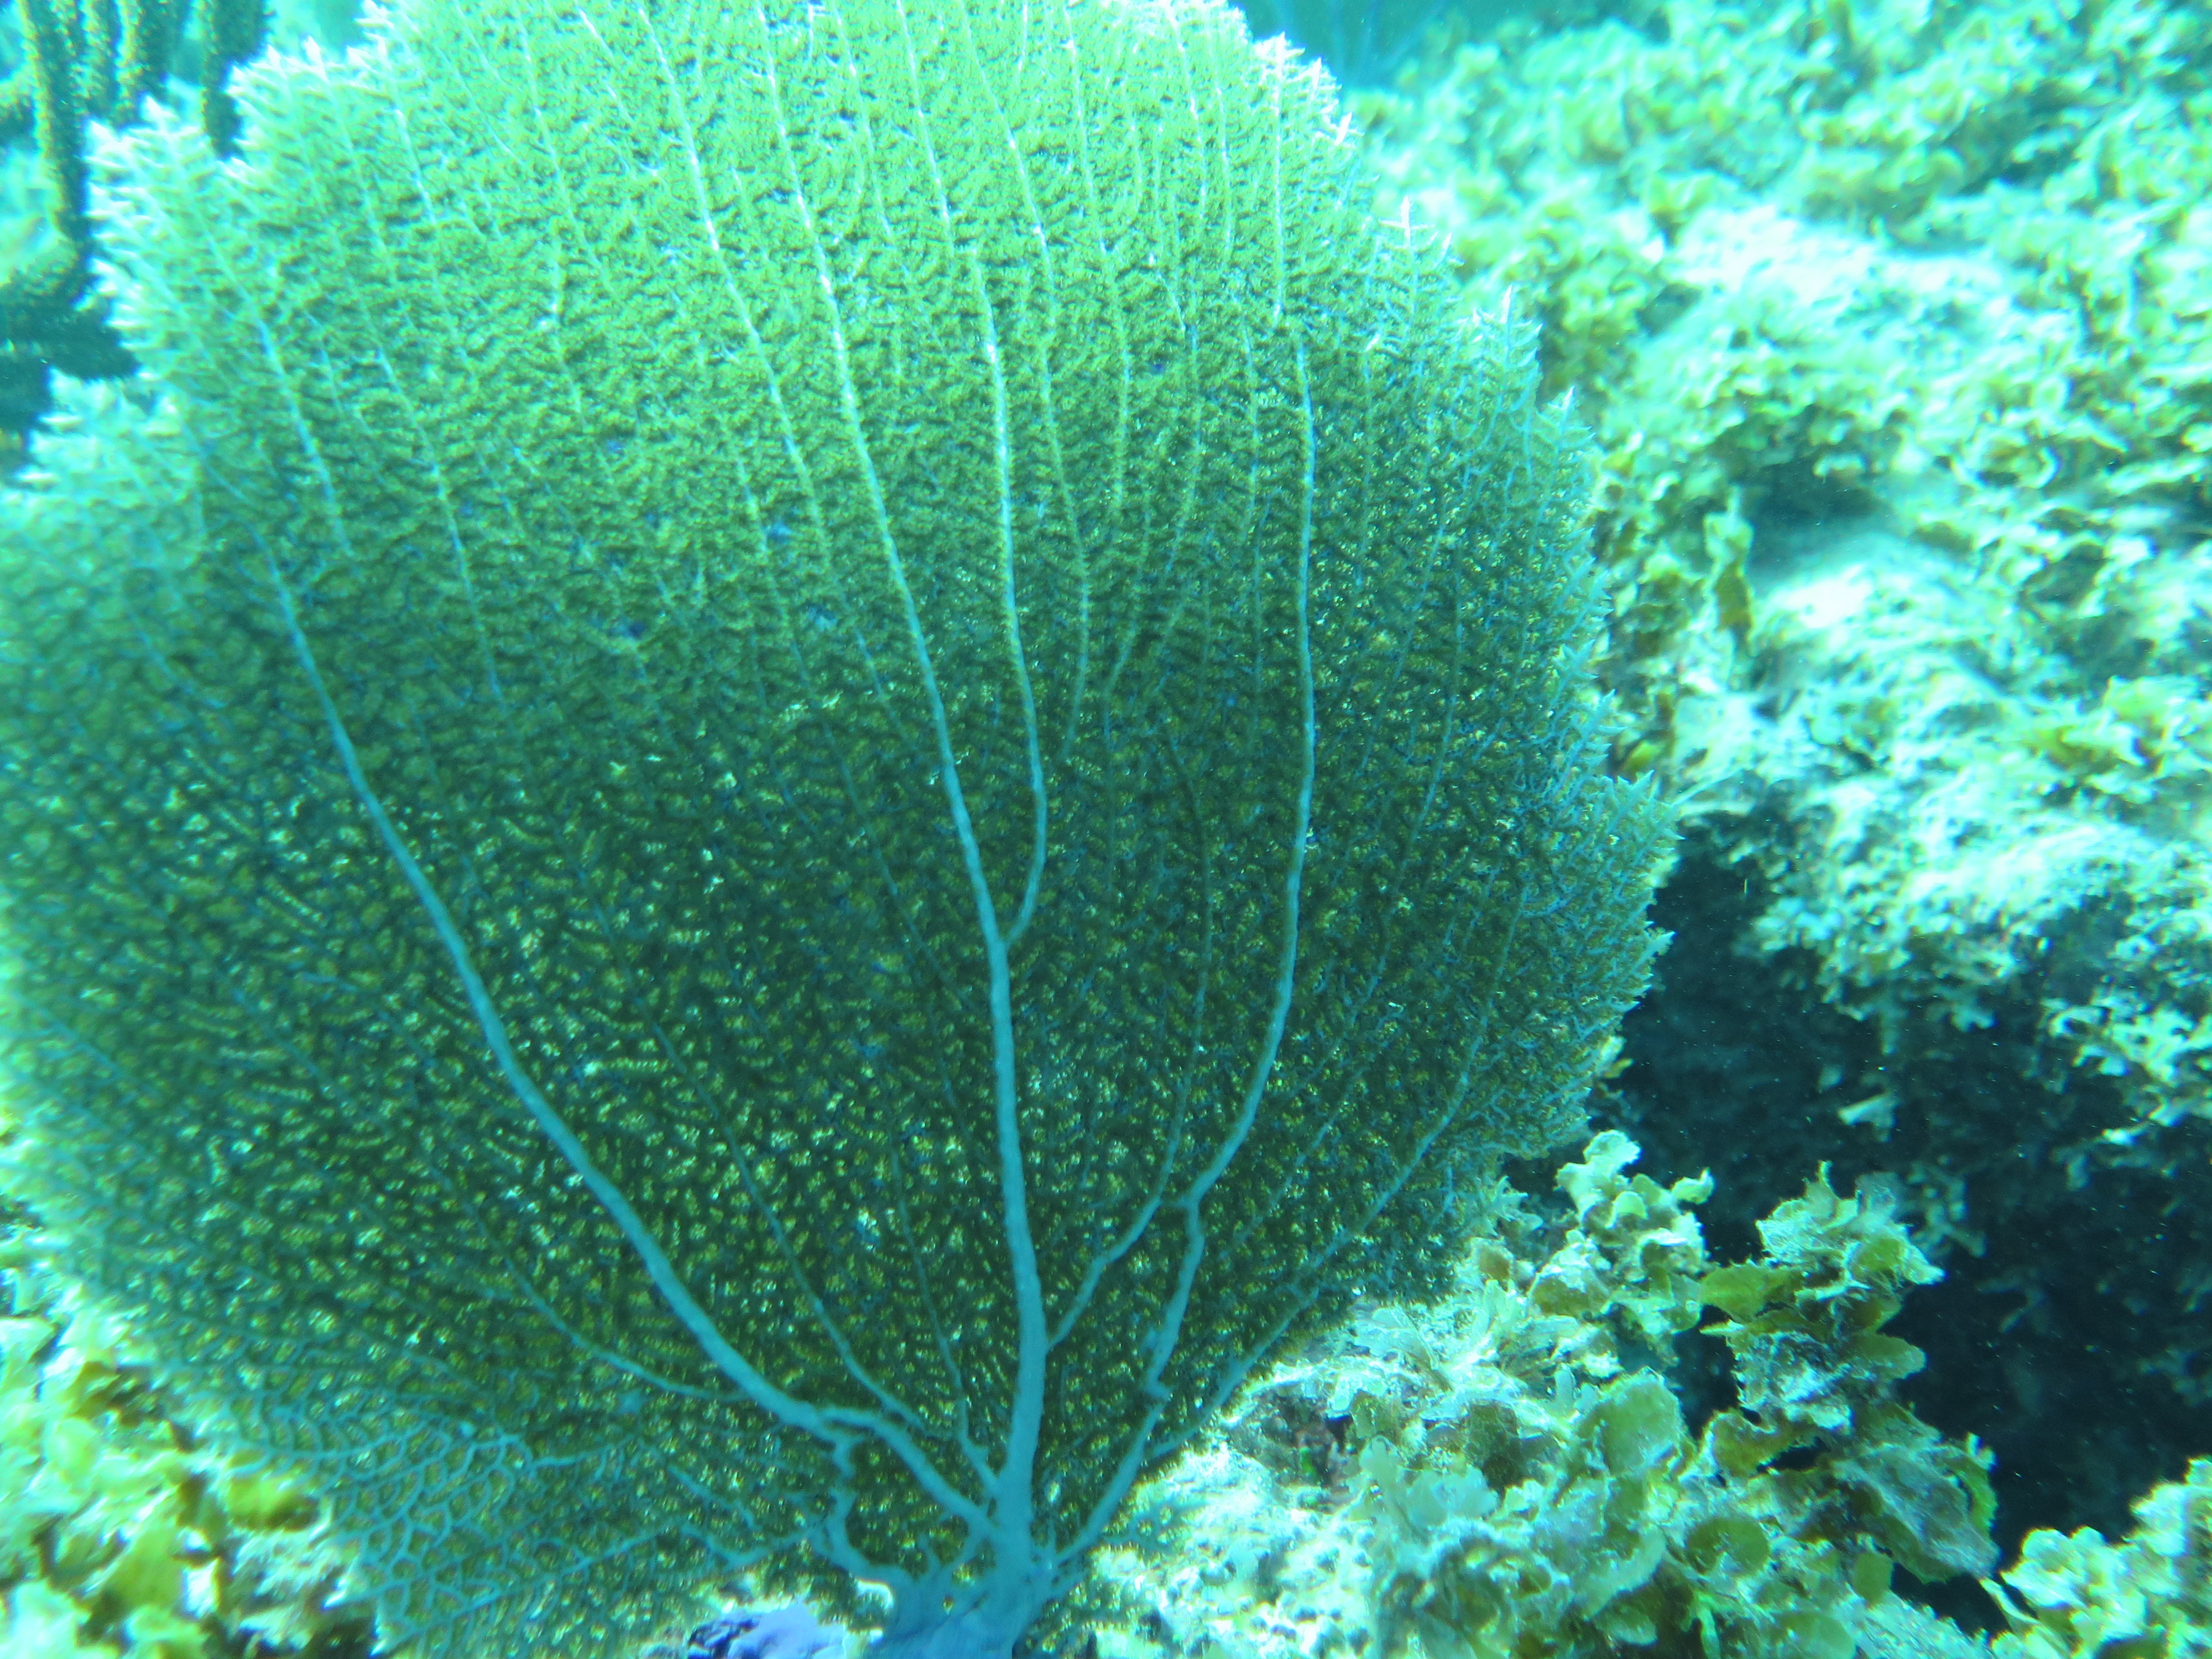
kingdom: Animalia
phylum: Cnidaria
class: Anthozoa
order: Malacalcyonacea
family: Gorgoniidae
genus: Gorgonia
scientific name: Gorgonia ventalina
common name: Common sea fan
